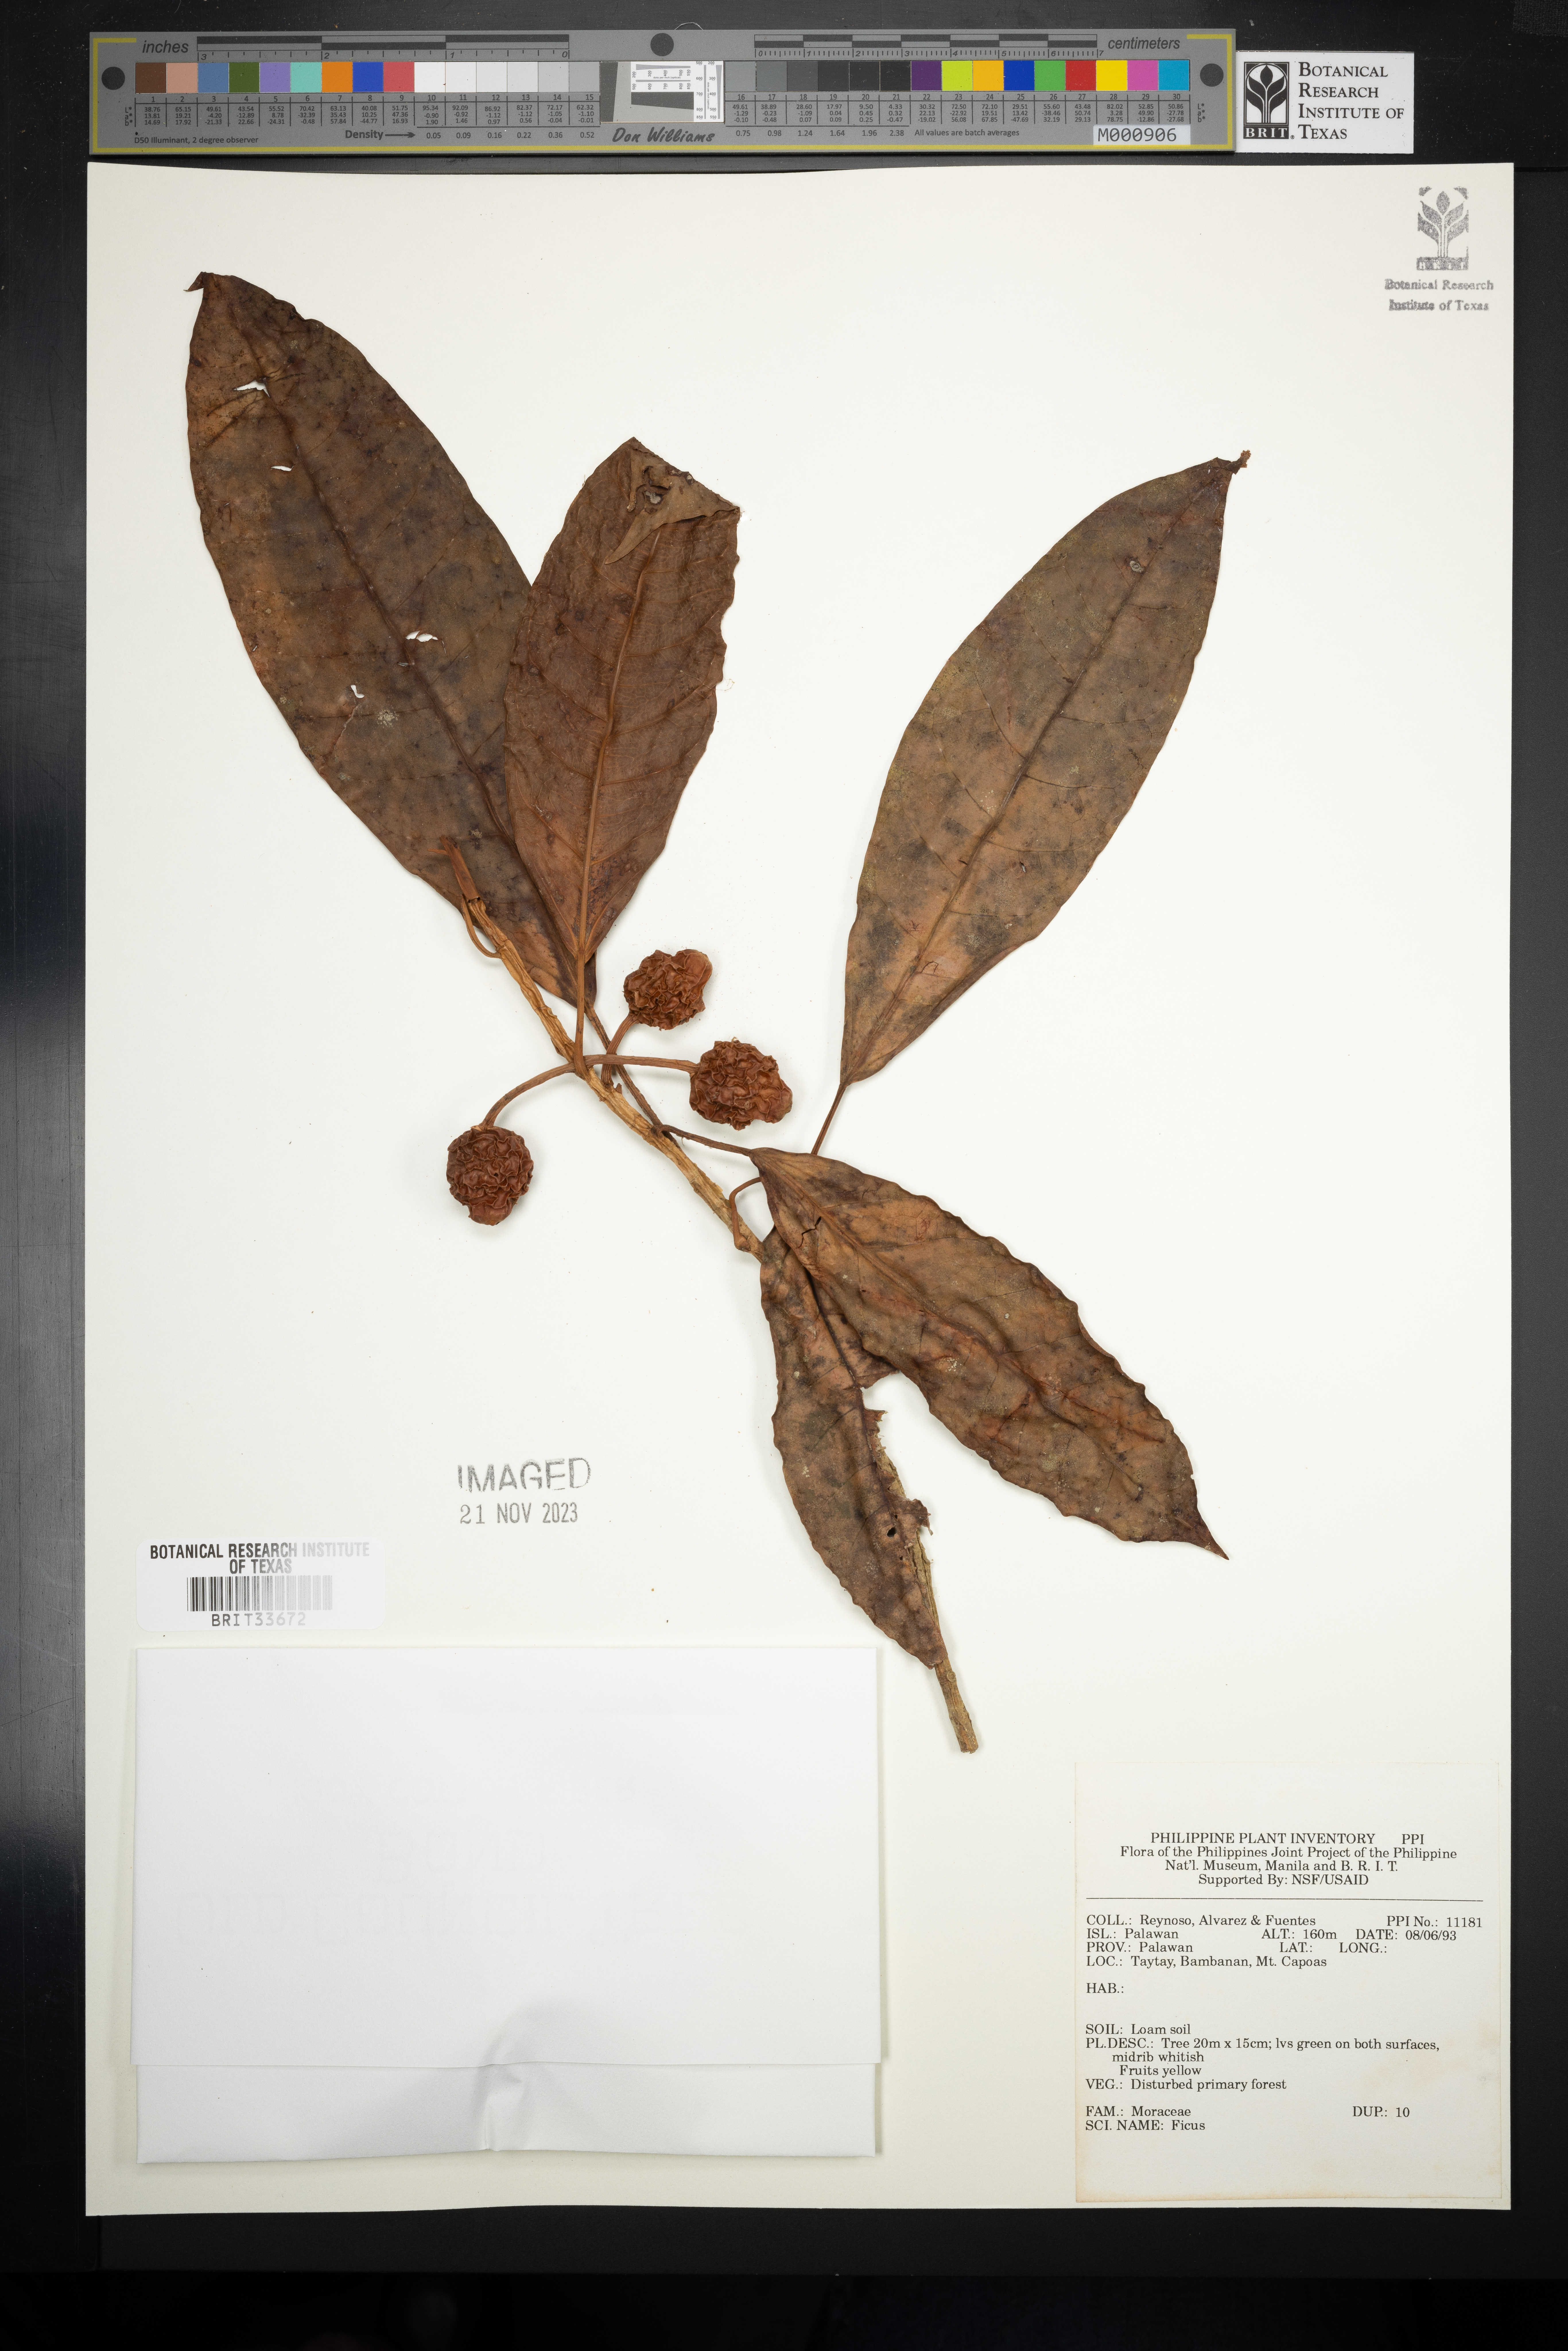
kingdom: Plantae
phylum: Tracheophyta
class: Magnoliopsida
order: Rosales
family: Moraceae
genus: Ficus
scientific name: Ficus
